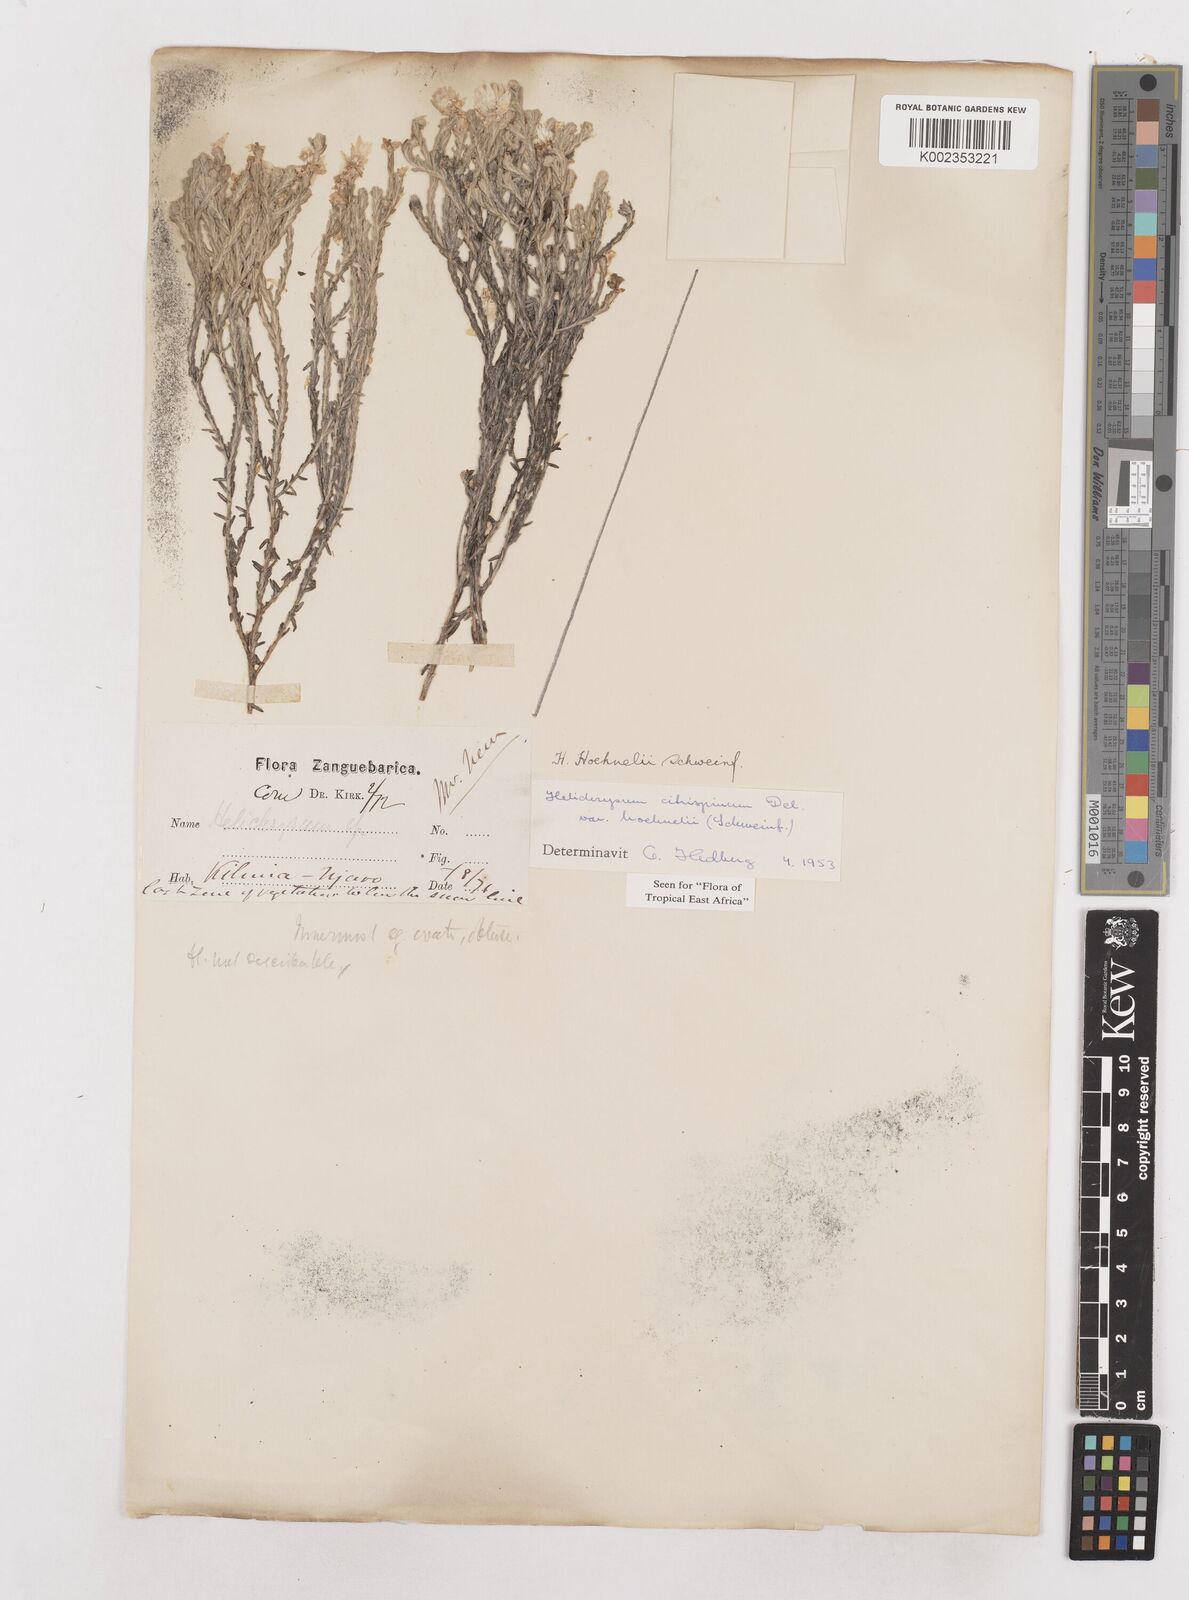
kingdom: Plantae
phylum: Tracheophyta
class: Magnoliopsida
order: Asterales
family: Asteraceae
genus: Helichrysum
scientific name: Helichrysum citrispinum
